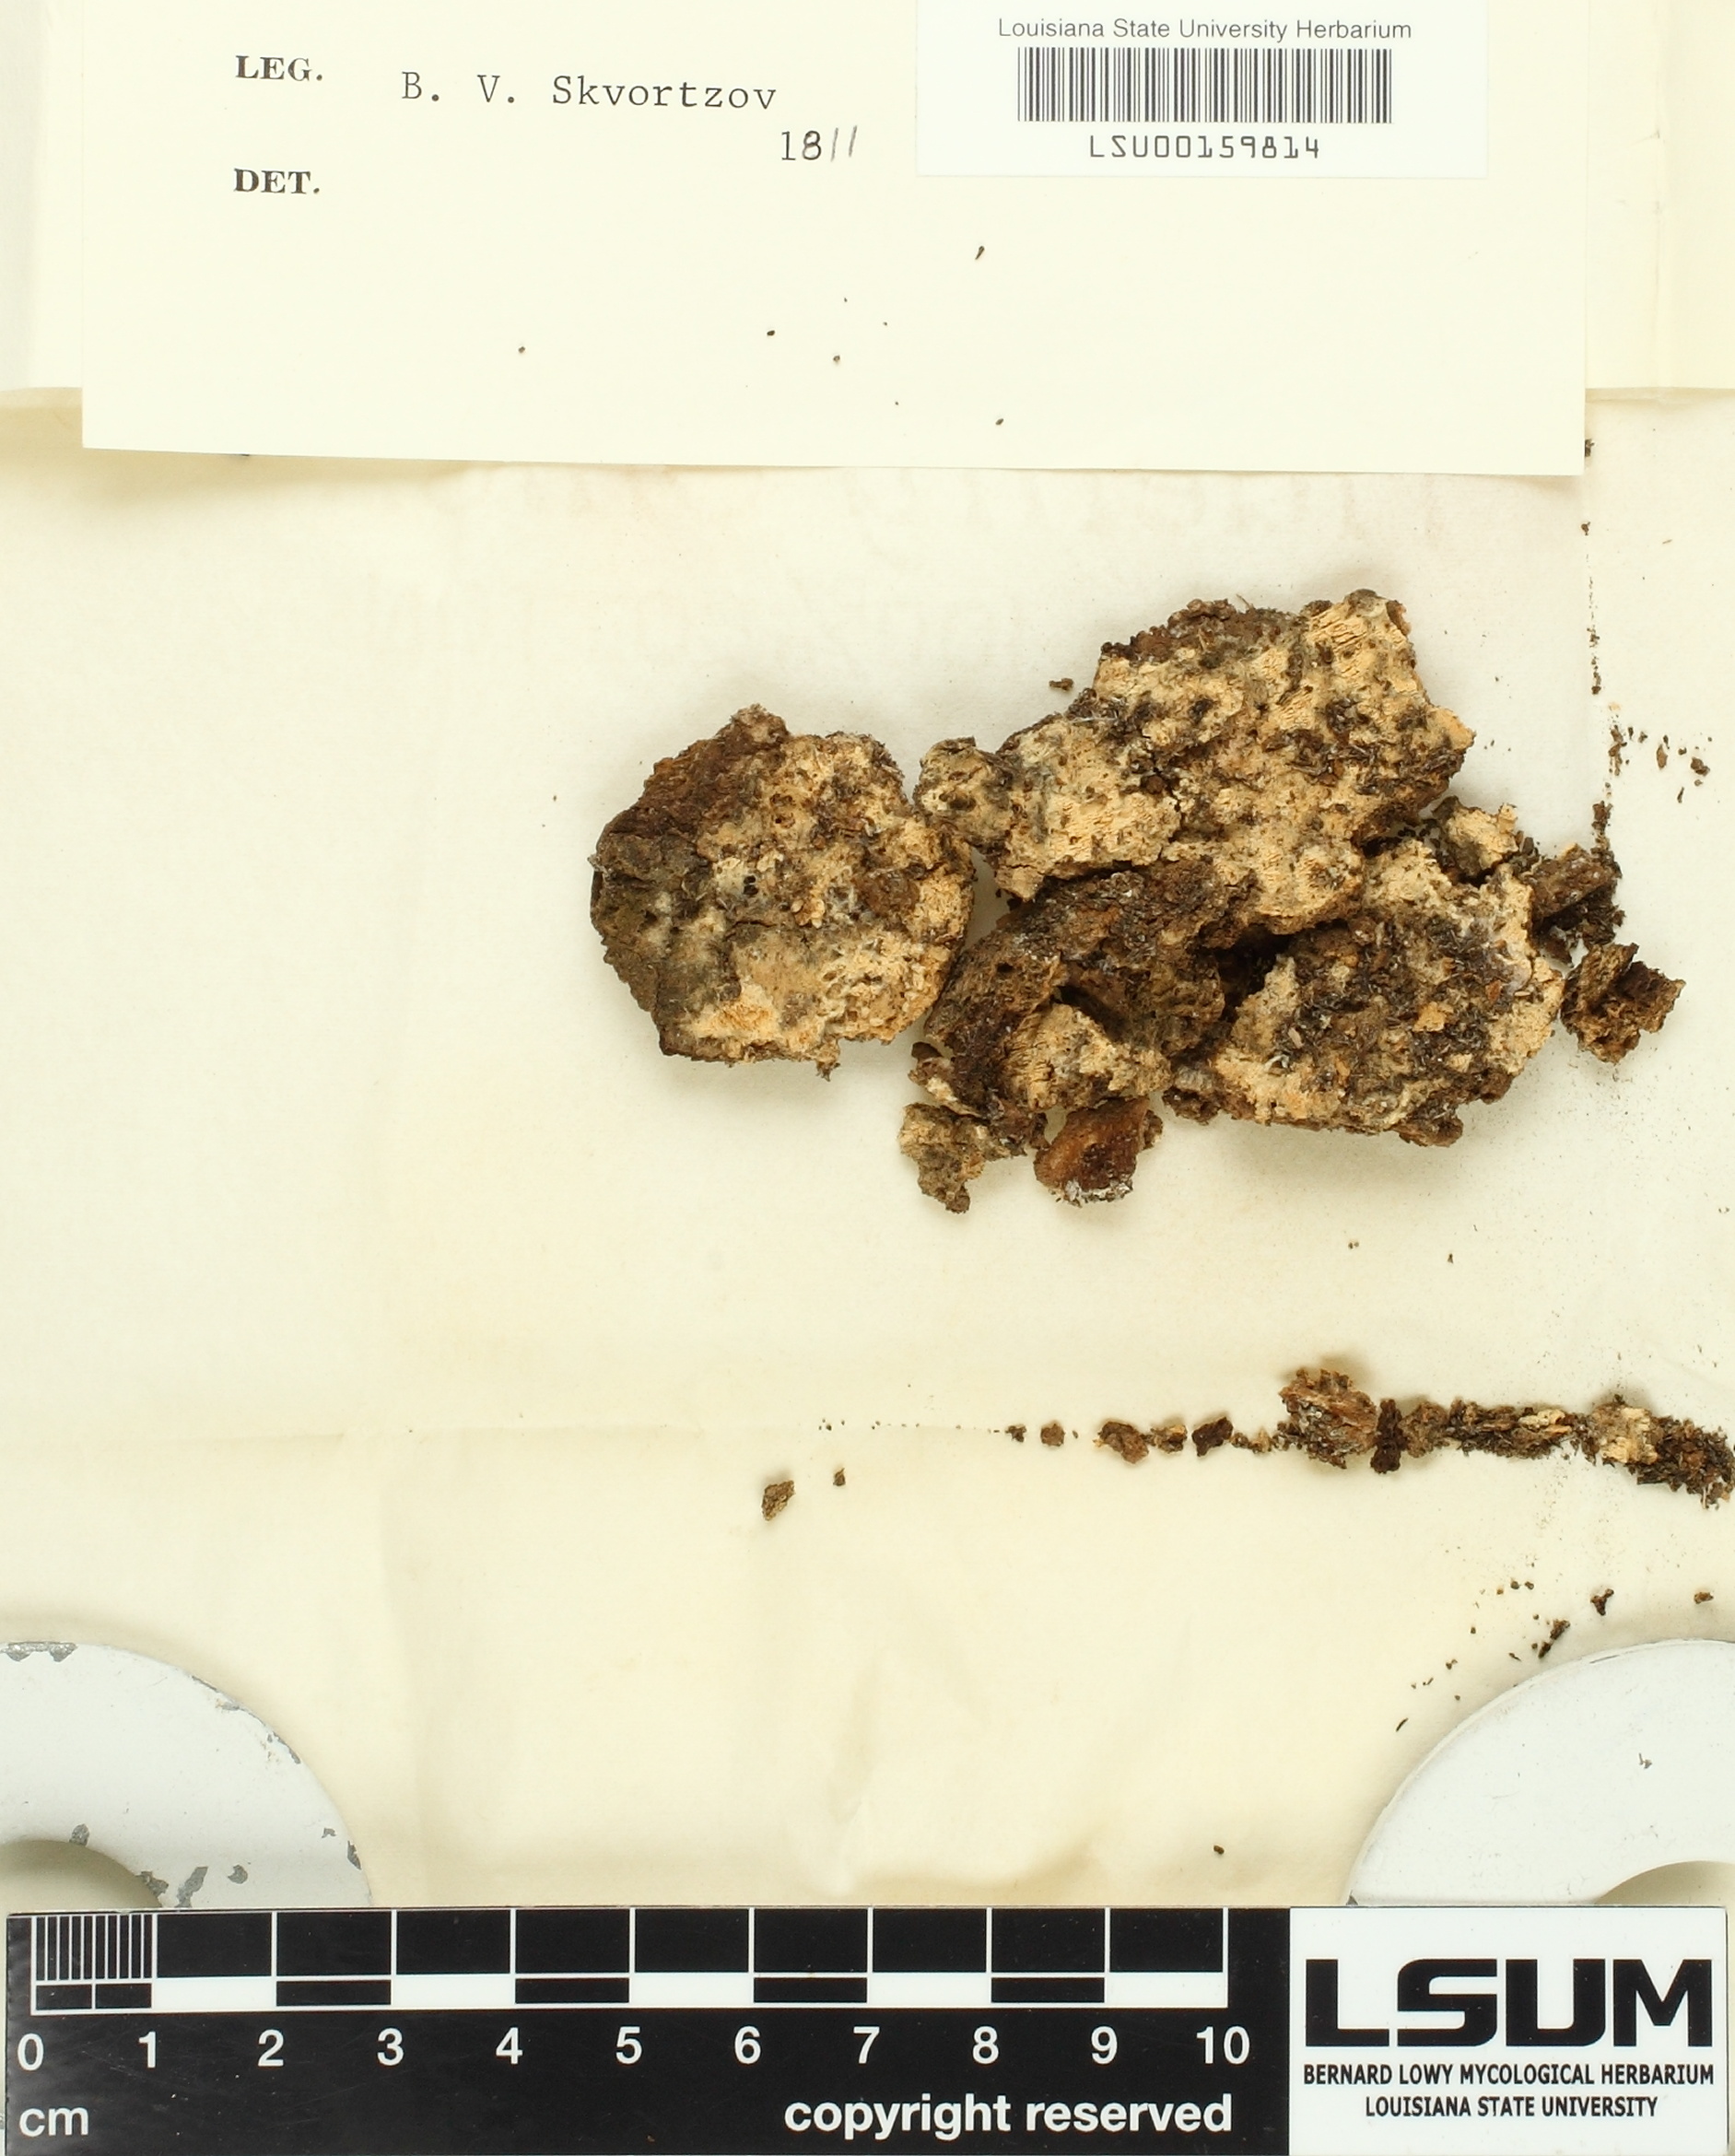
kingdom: Fungi
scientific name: Fungi
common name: Fungi
